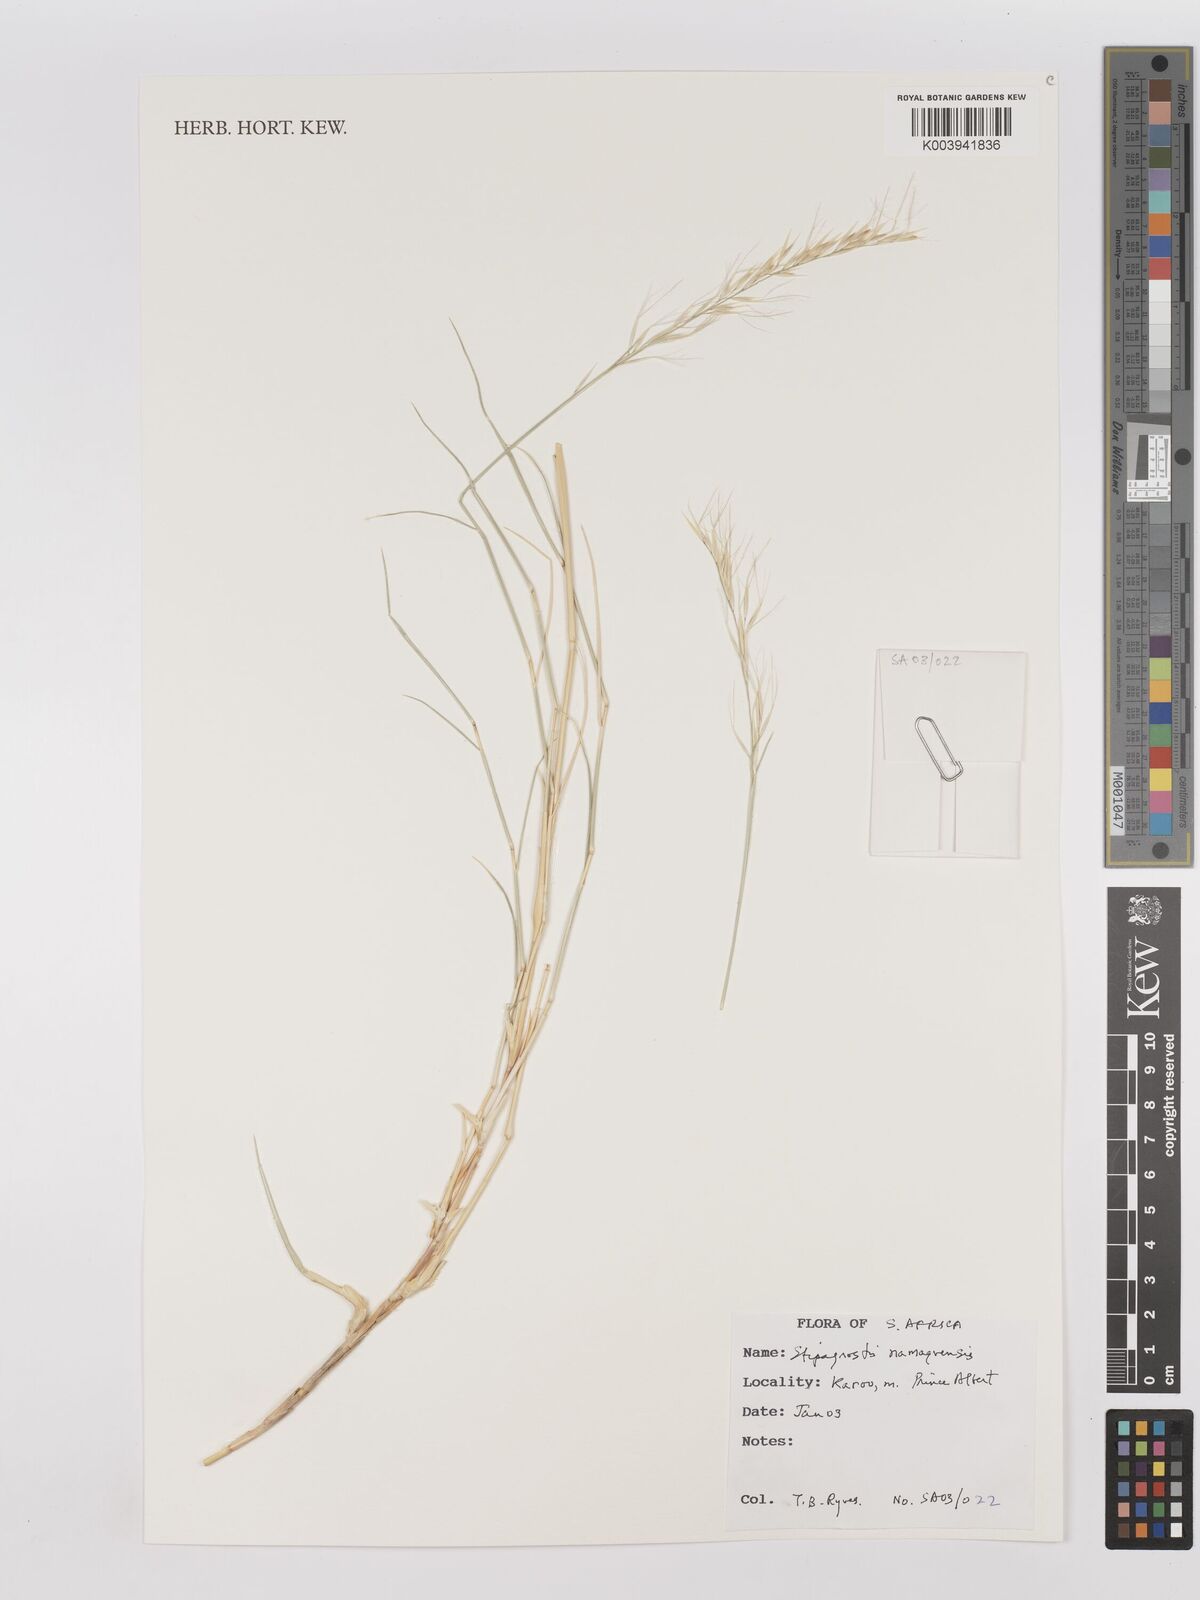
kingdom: Plantae
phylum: Tracheophyta
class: Liliopsida
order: Poales
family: Poaceae
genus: Stipagrostis
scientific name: Stipagrostis namaquensis
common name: River bushman grass
